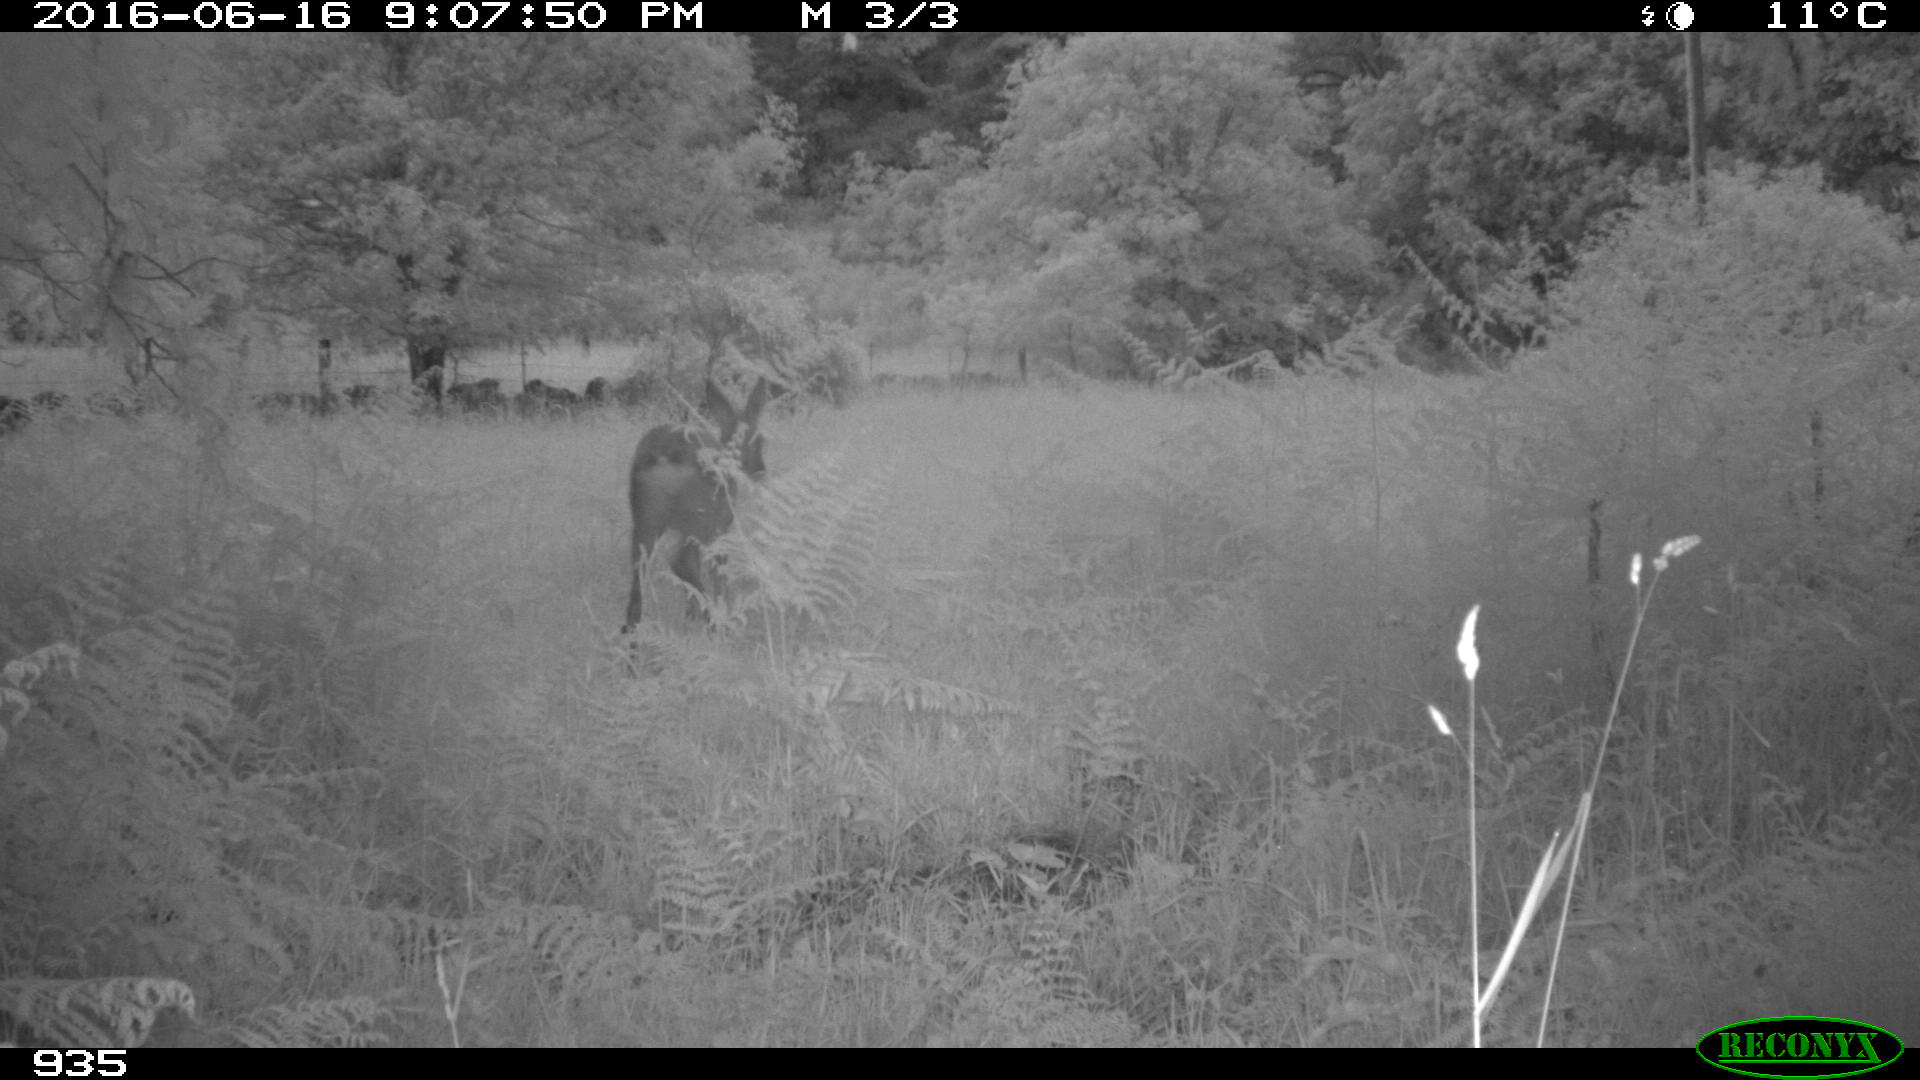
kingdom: Animalia
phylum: Chordata
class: Mammalia
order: Artiodactyla
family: Cervidae
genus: Capreolus
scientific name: Capreolus capreolus
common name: Western roe deer
